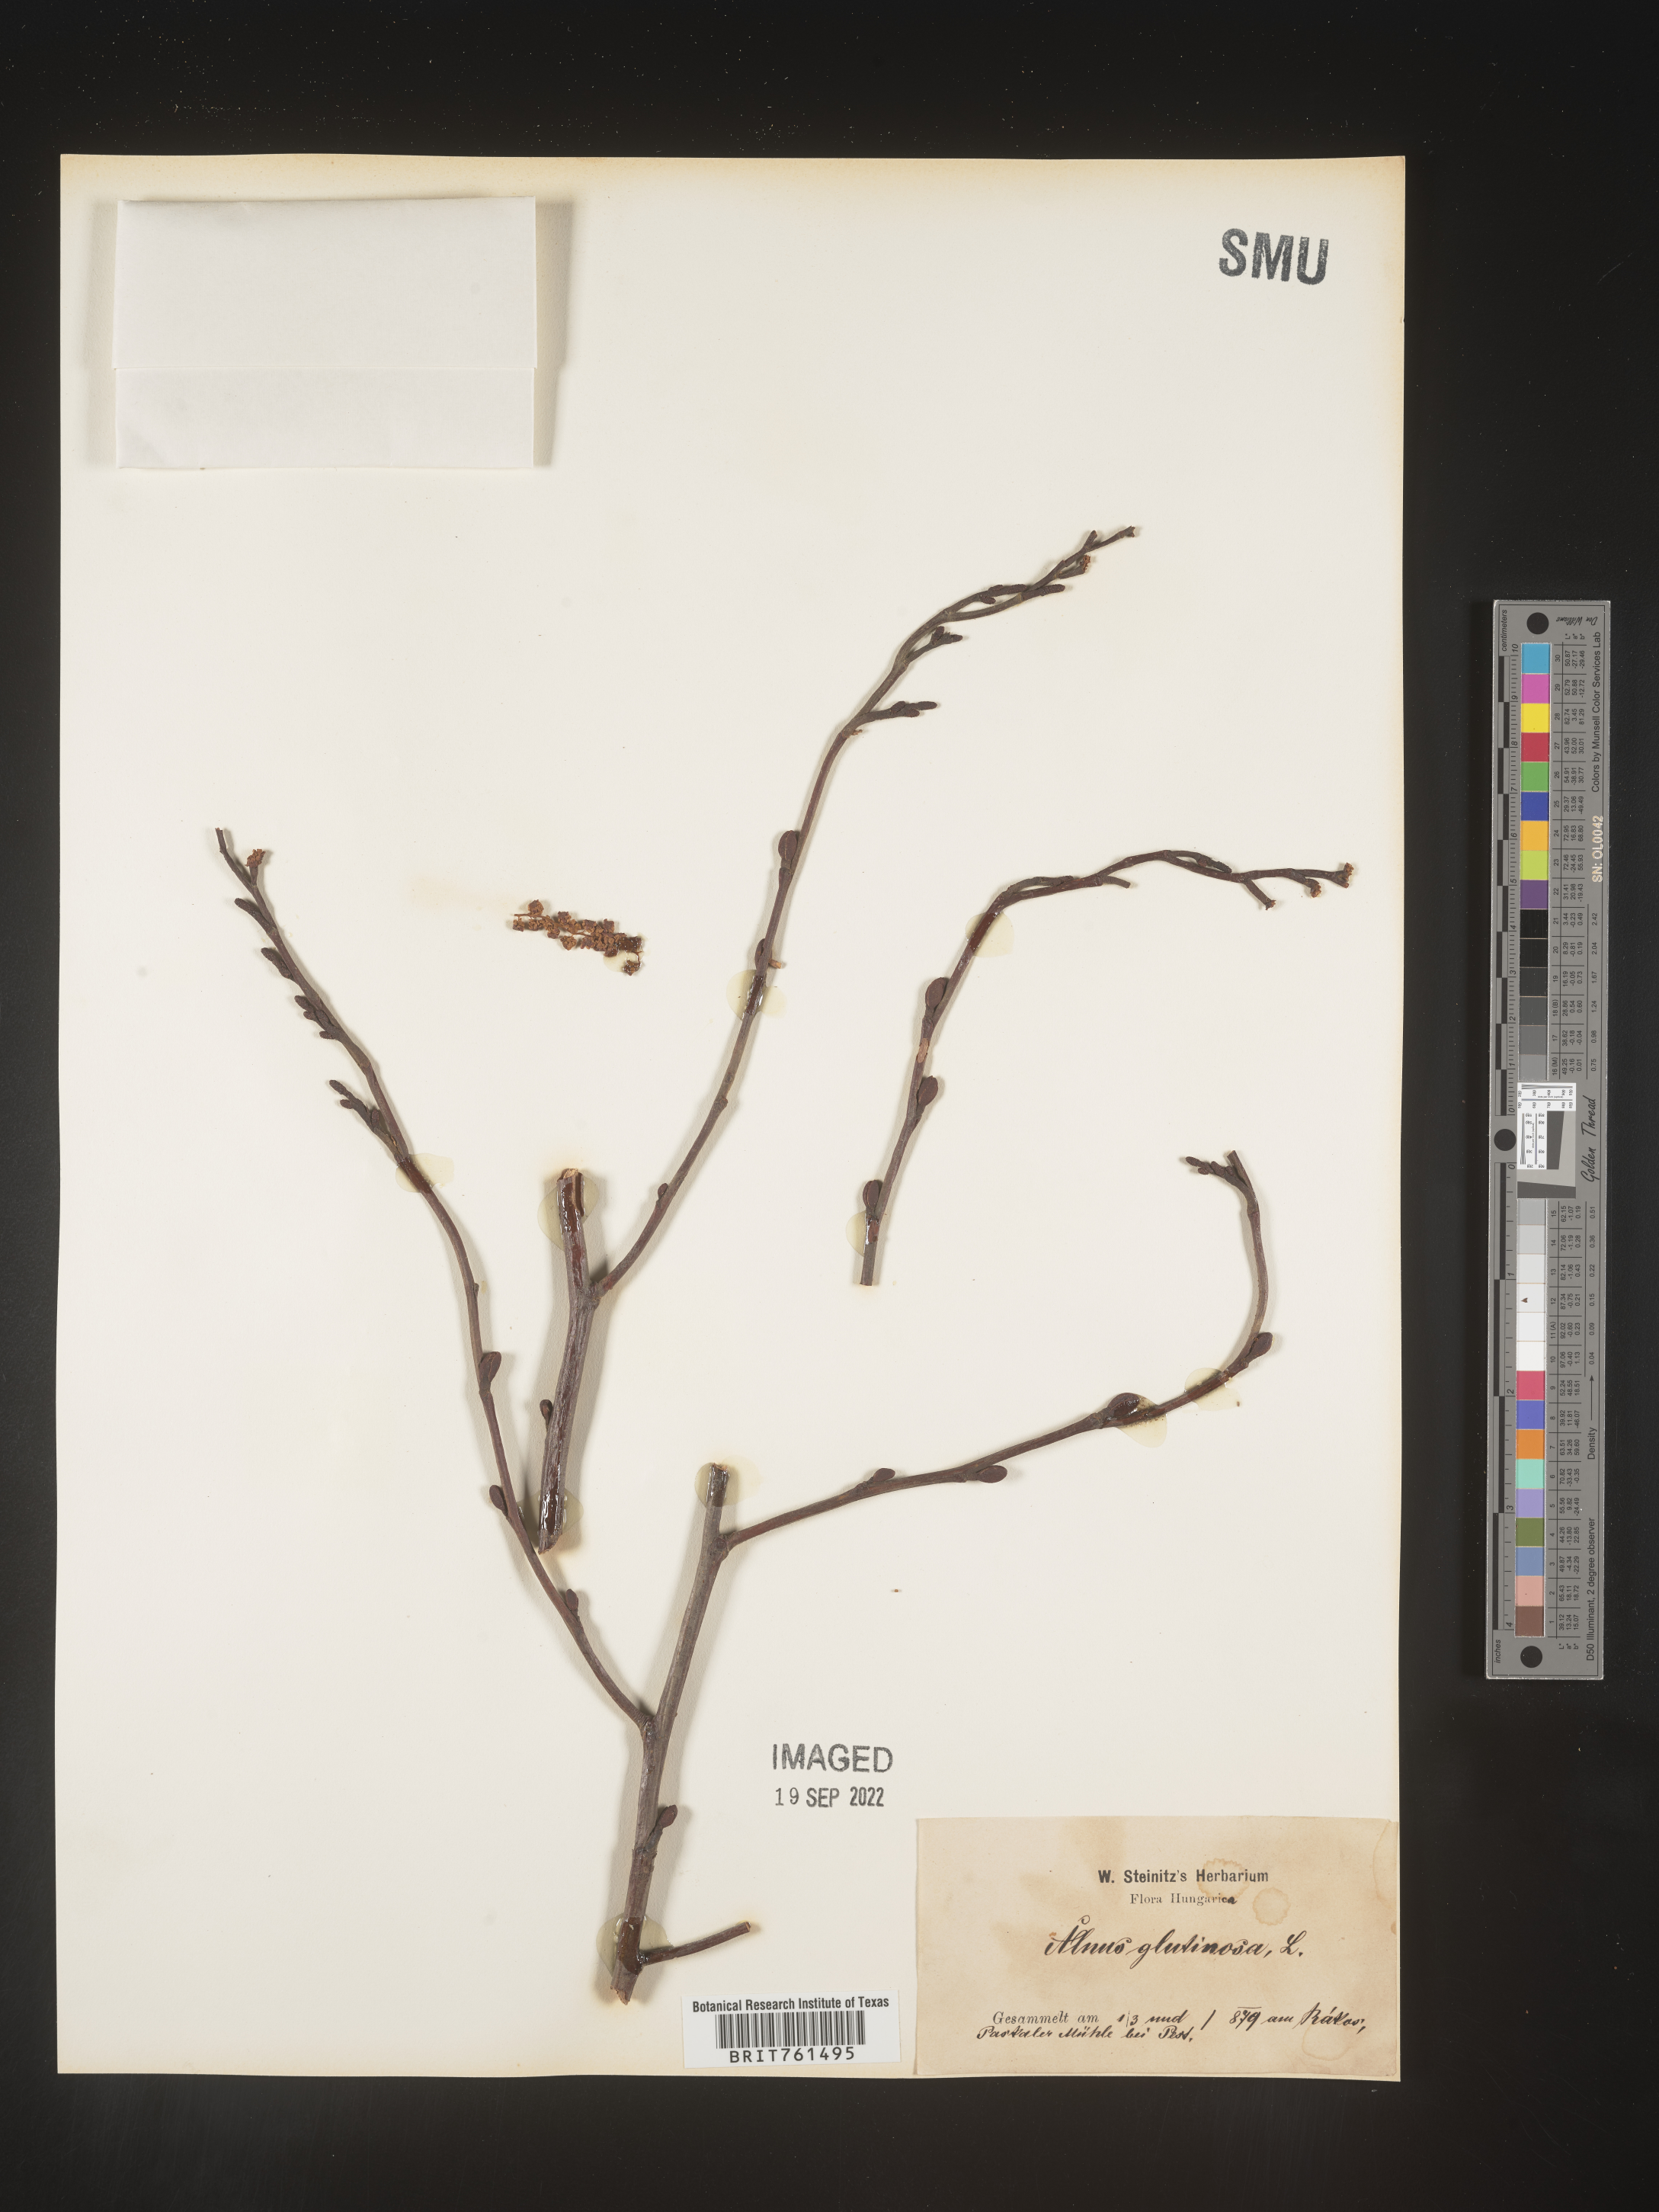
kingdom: Plantae
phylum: Tracheophyta
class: Magnoliopsida
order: Fagales
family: Betulaceae
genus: Alnus
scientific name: Alnus
